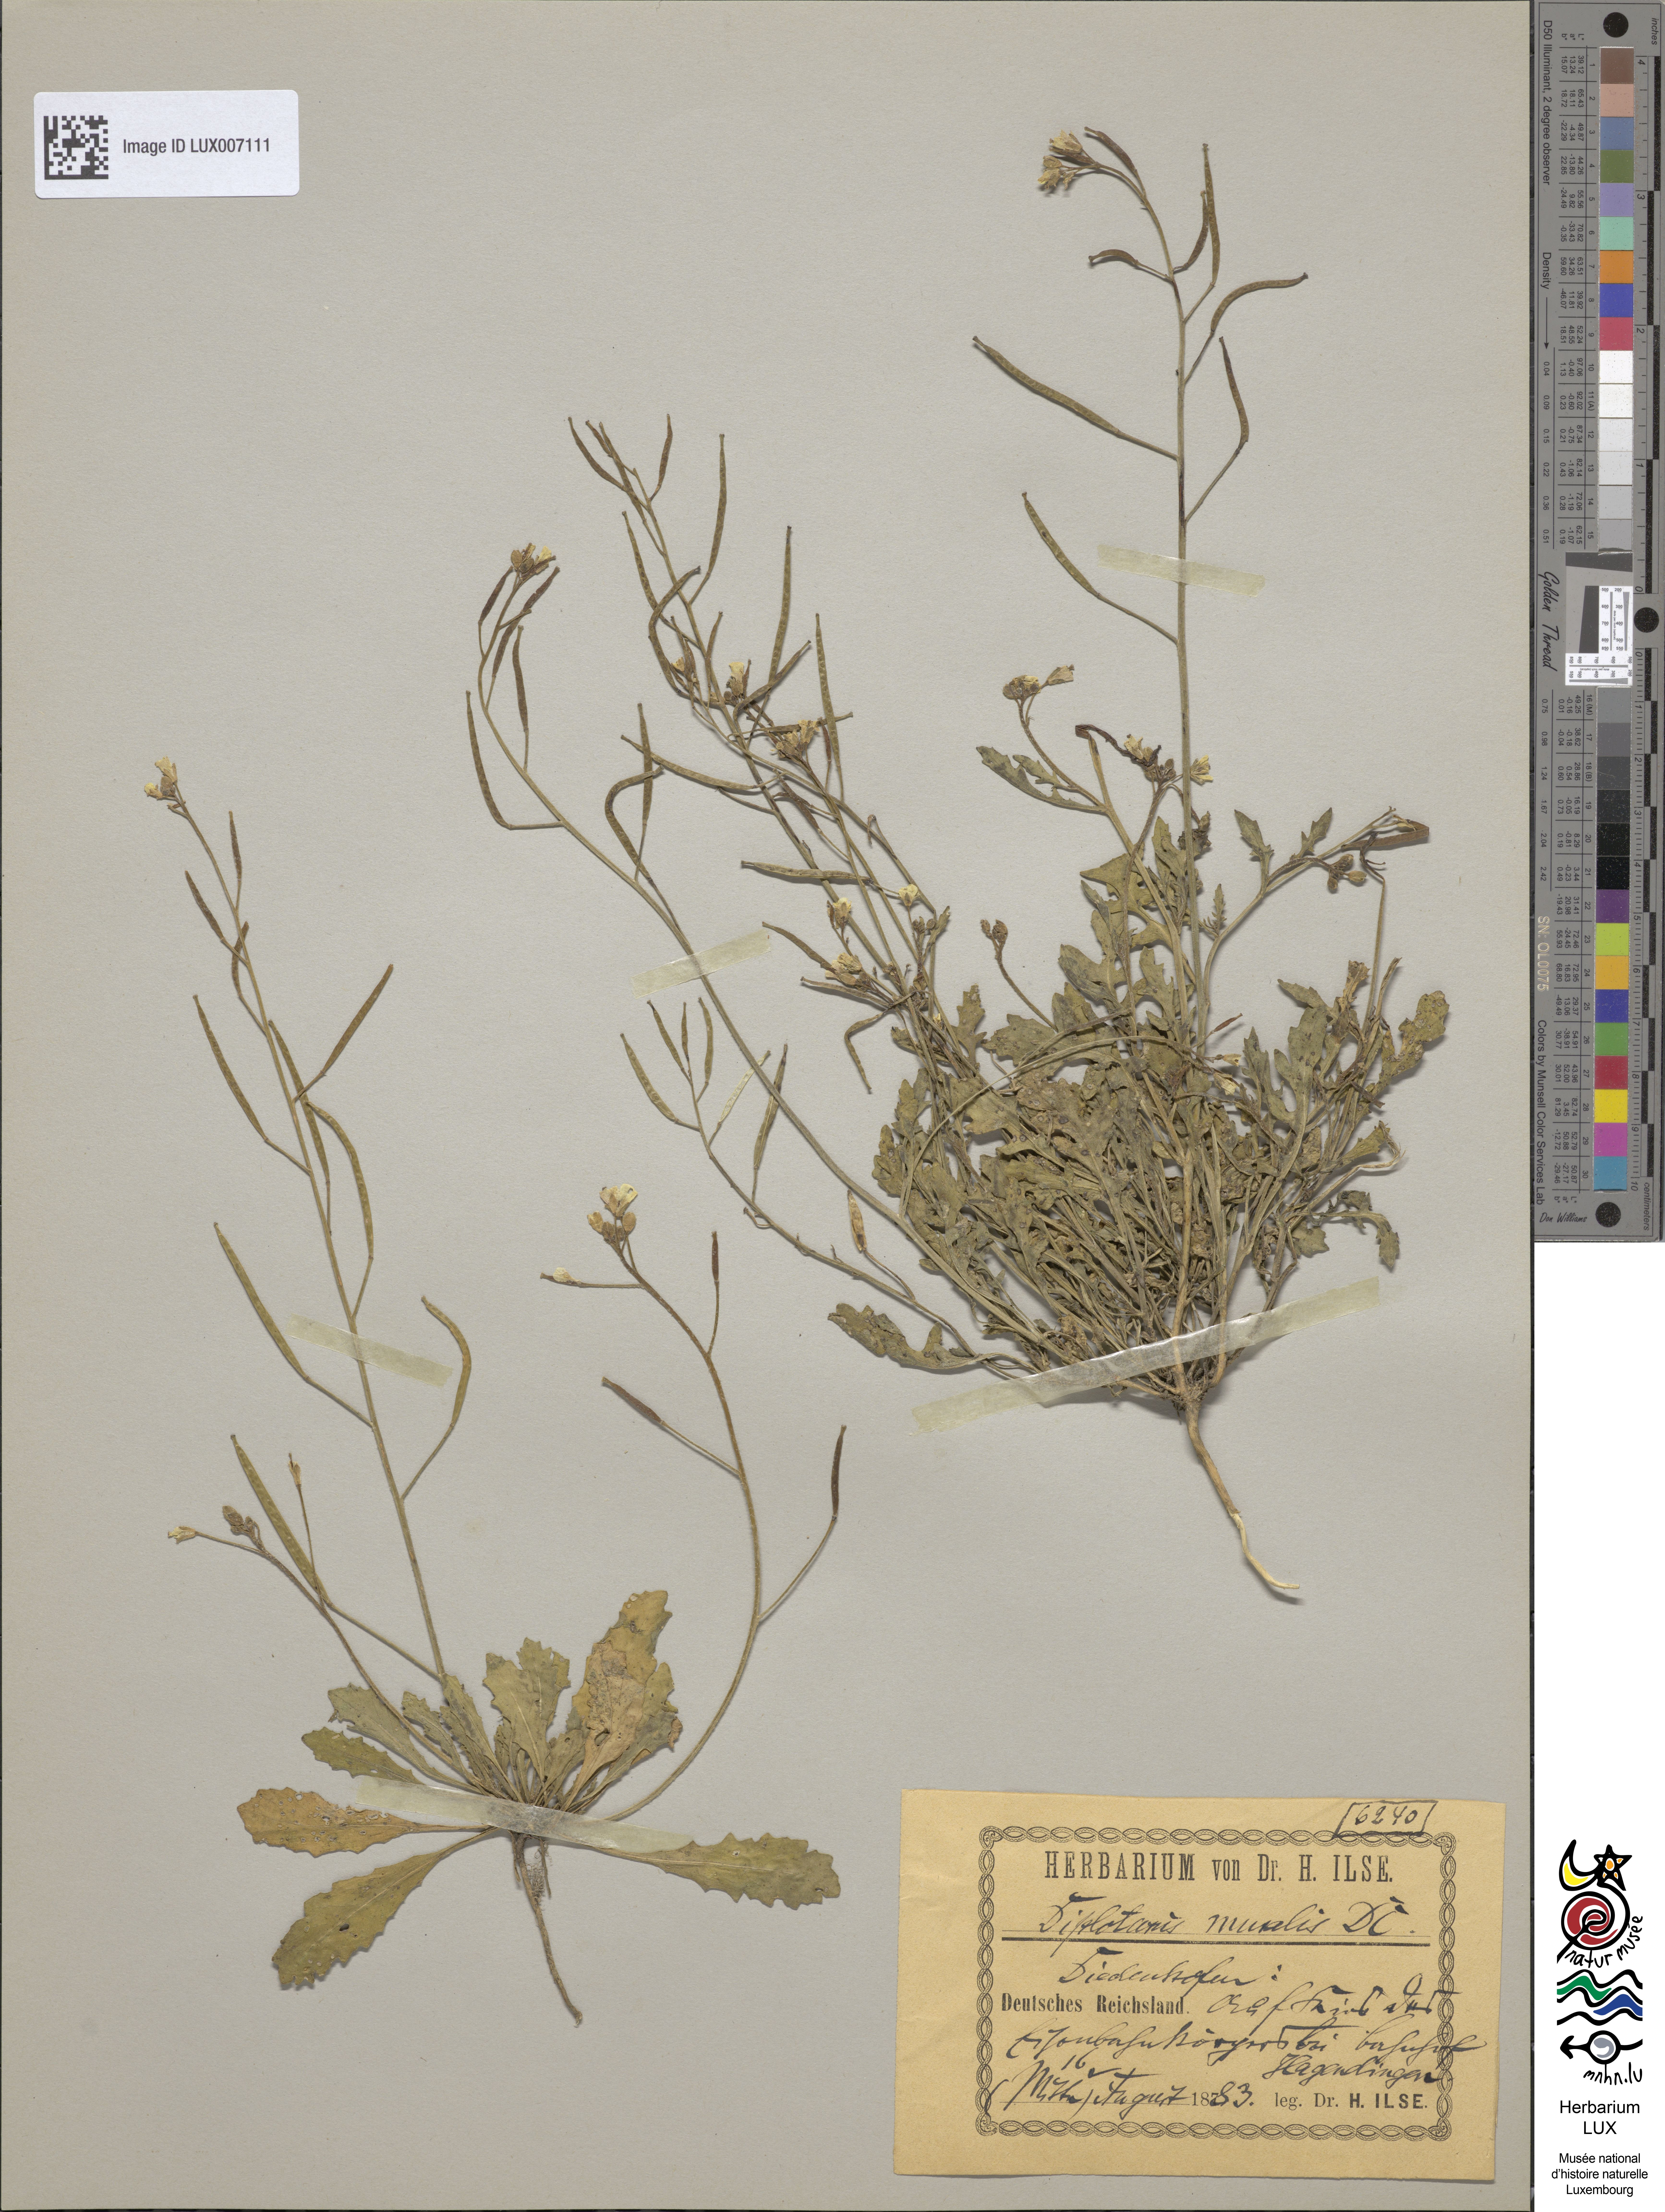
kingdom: Plantae
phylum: Tracheophyta
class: Magnoliopsida
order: Brassicales
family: Brassicaceae
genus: Diplotaxis
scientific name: Diplotaxis muralis
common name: Annual wall-rocket
